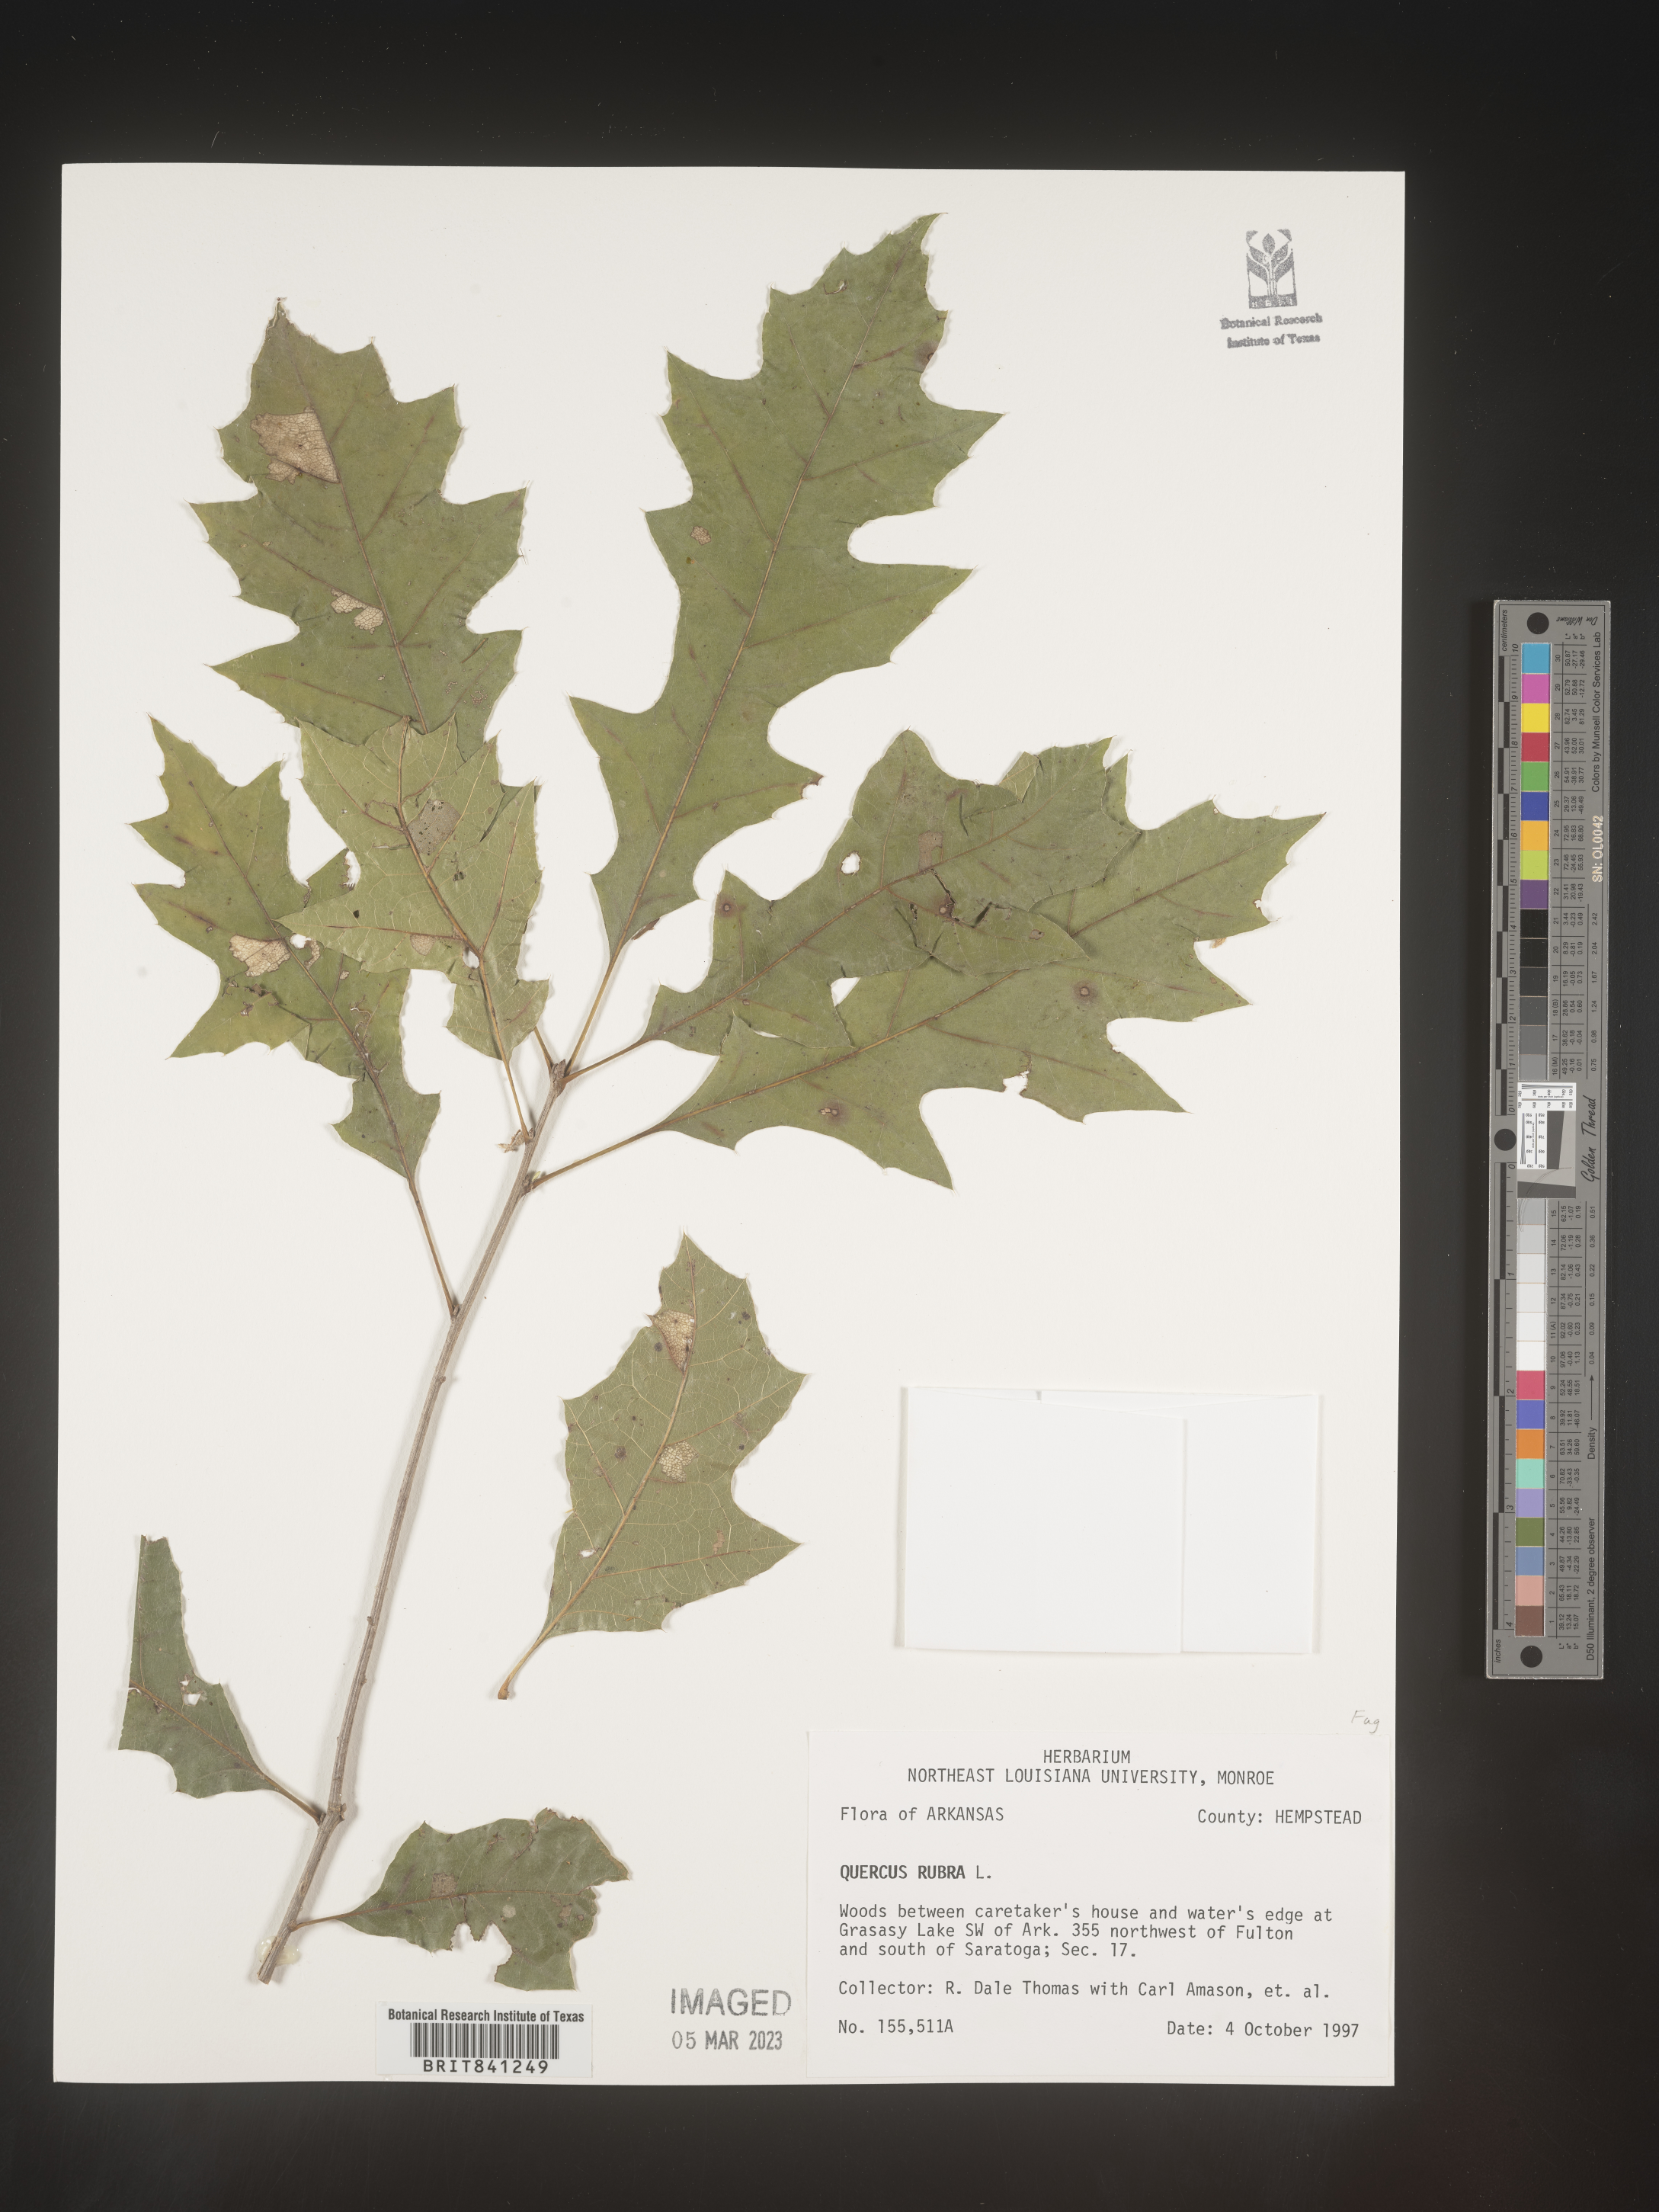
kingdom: Plantae
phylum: Tracheophyta
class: Magnoliopsida
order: Fagales
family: Fagaceae
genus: Quercus
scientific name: Quercus rubra
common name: Red oak
